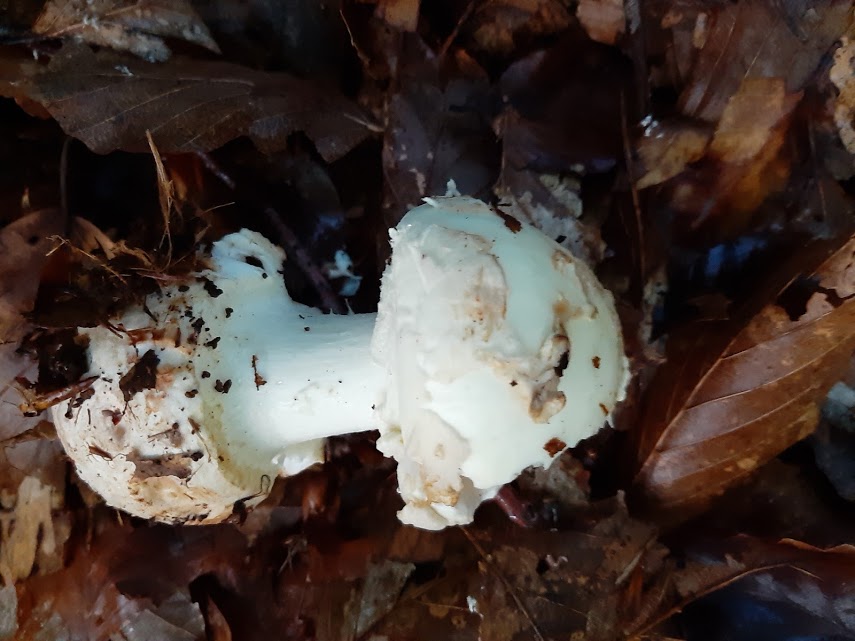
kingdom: Fungi
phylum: Basidiomycota
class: Agaricomycetes
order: Agaricales
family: Amanitaceae
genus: Amanita
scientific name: Amanita citrina
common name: kugleknoldet fluesvamp
